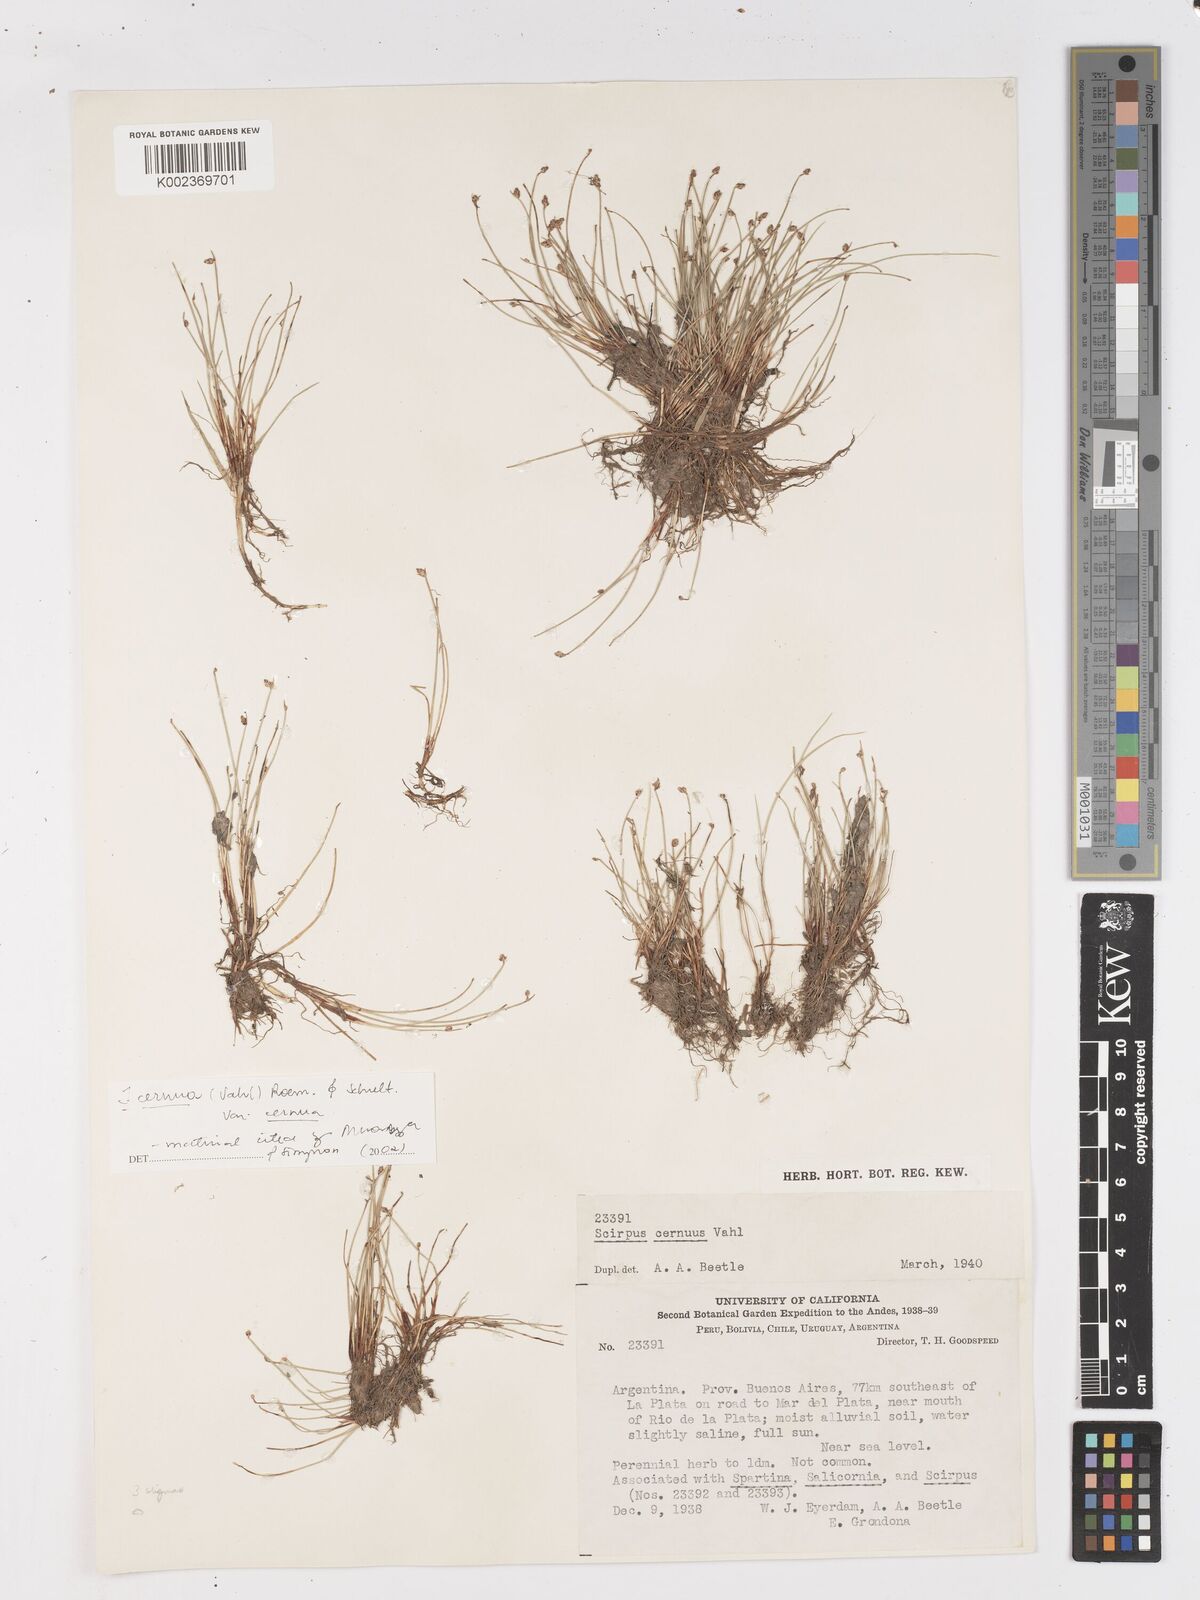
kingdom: Plantae
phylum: Tracheophyta
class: Liliopsida
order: Poales
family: Cyperaceae
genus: Isolepis
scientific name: Isolepis cernua
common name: Slender club-rush
